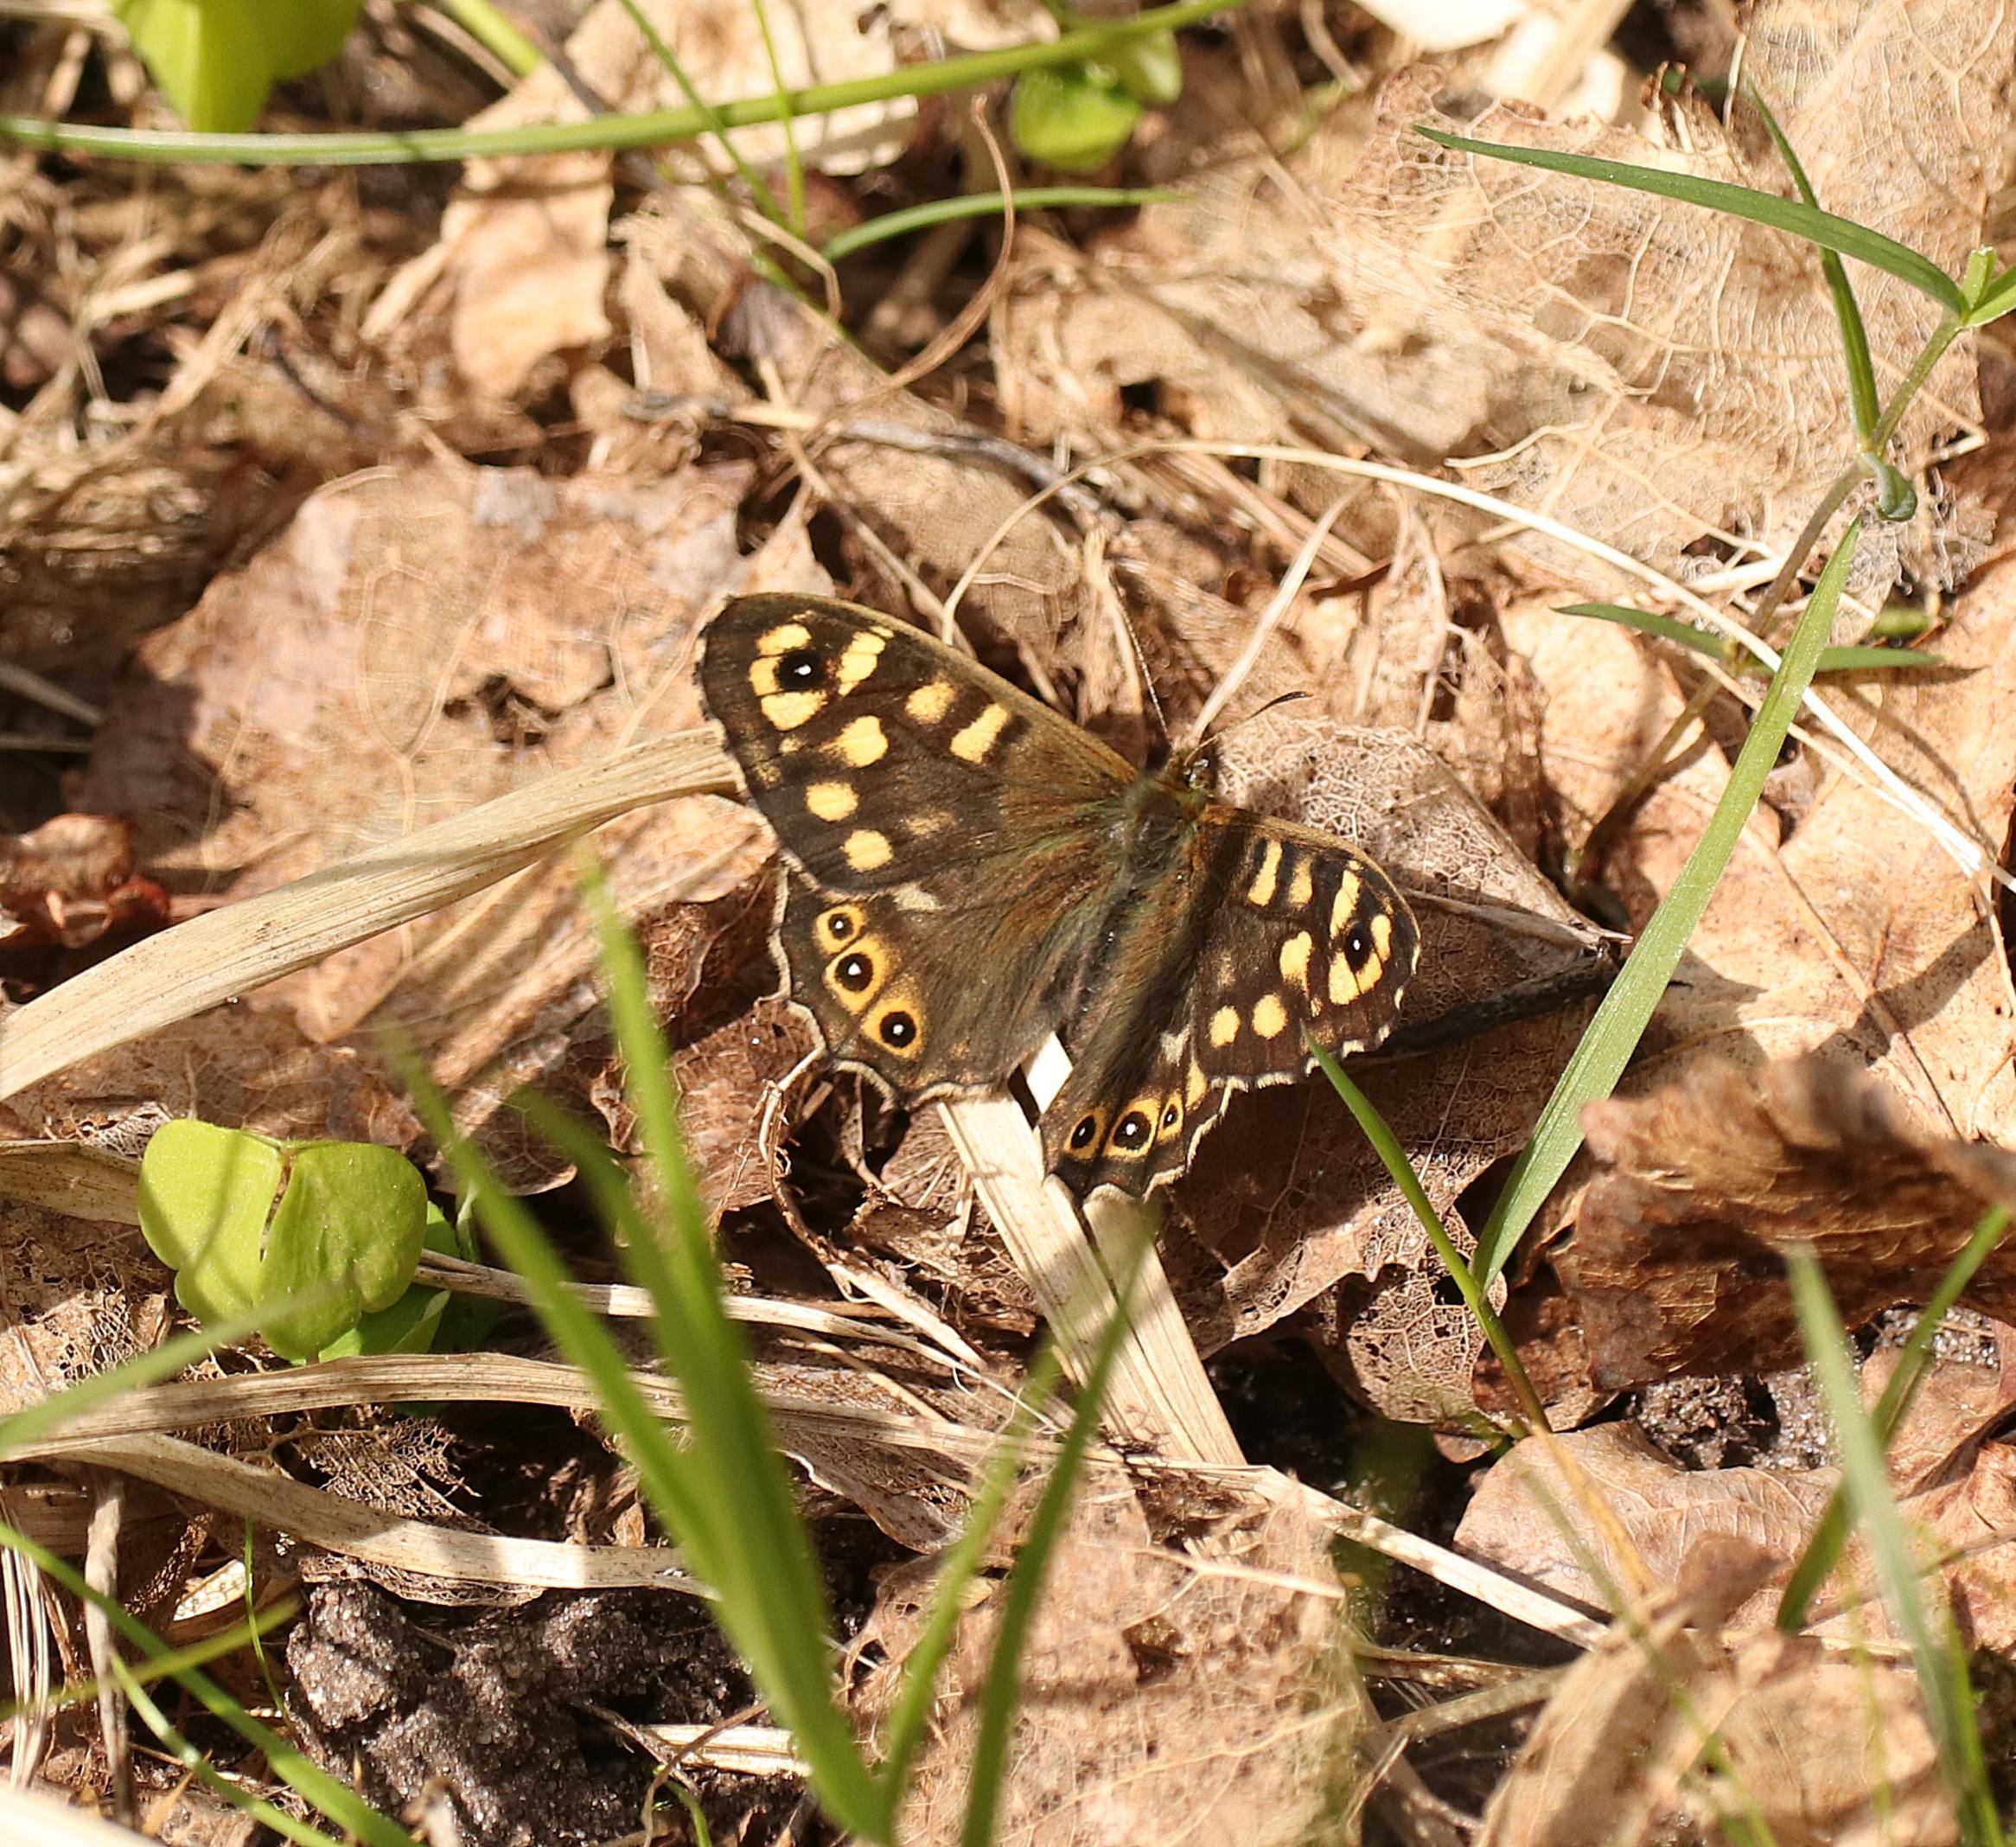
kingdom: Animalia
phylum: Arthropoda
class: Insecta
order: Lepidoptera
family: Nymphalidae
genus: Pararge
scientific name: Pararge aegeria
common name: Skovrandøje
